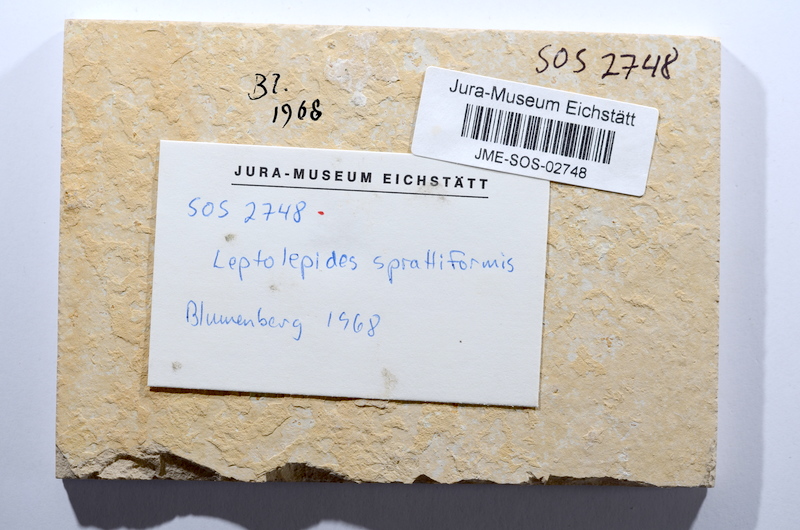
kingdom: Animalia
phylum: Chordata
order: Salmoniformes
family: Orthogonikleithridae
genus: Leptolepides
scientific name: Leptolepides sprattiformis
